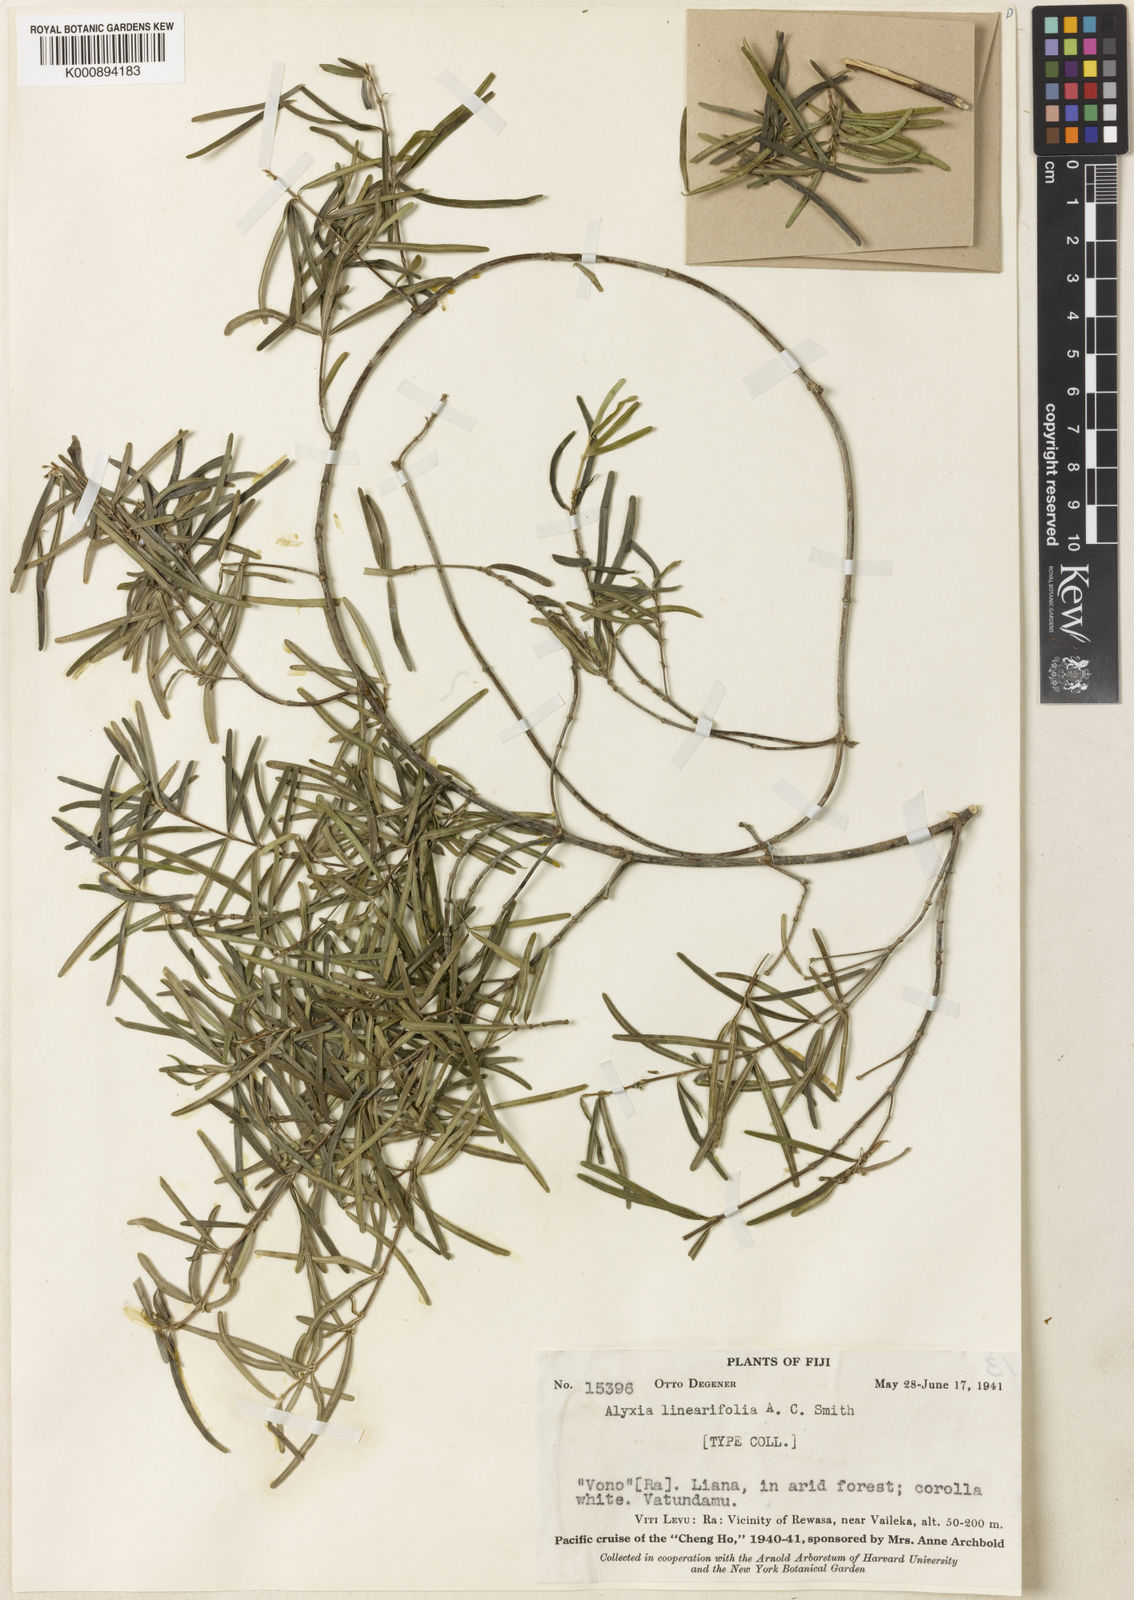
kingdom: Plantae
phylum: Tracheophyta
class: Magnoliopsida
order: Gentianales
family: Apocynaceae
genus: Alyxia
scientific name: Alyxia stellata
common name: Maile
